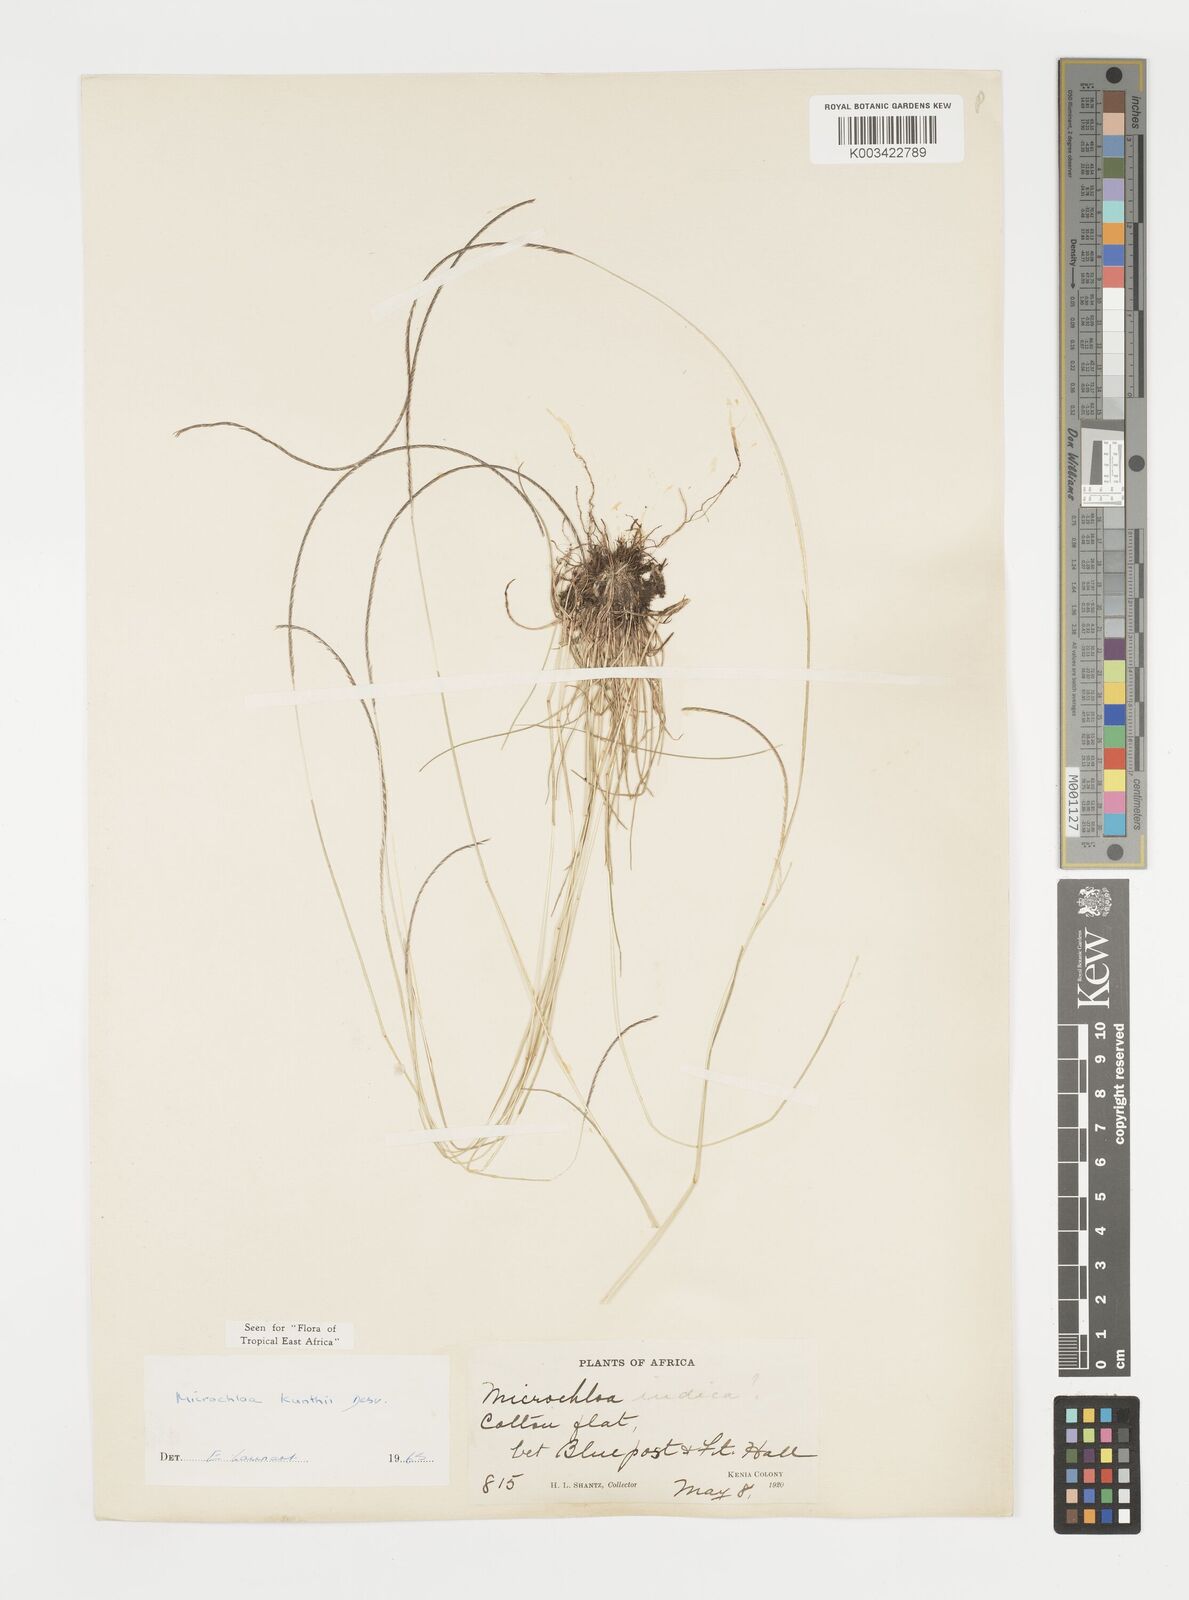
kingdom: Plantae
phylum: Tracheophyta
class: Liliopsida
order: Poales
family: Poaceae
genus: Microchloa
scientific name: Microchloa kunthii
